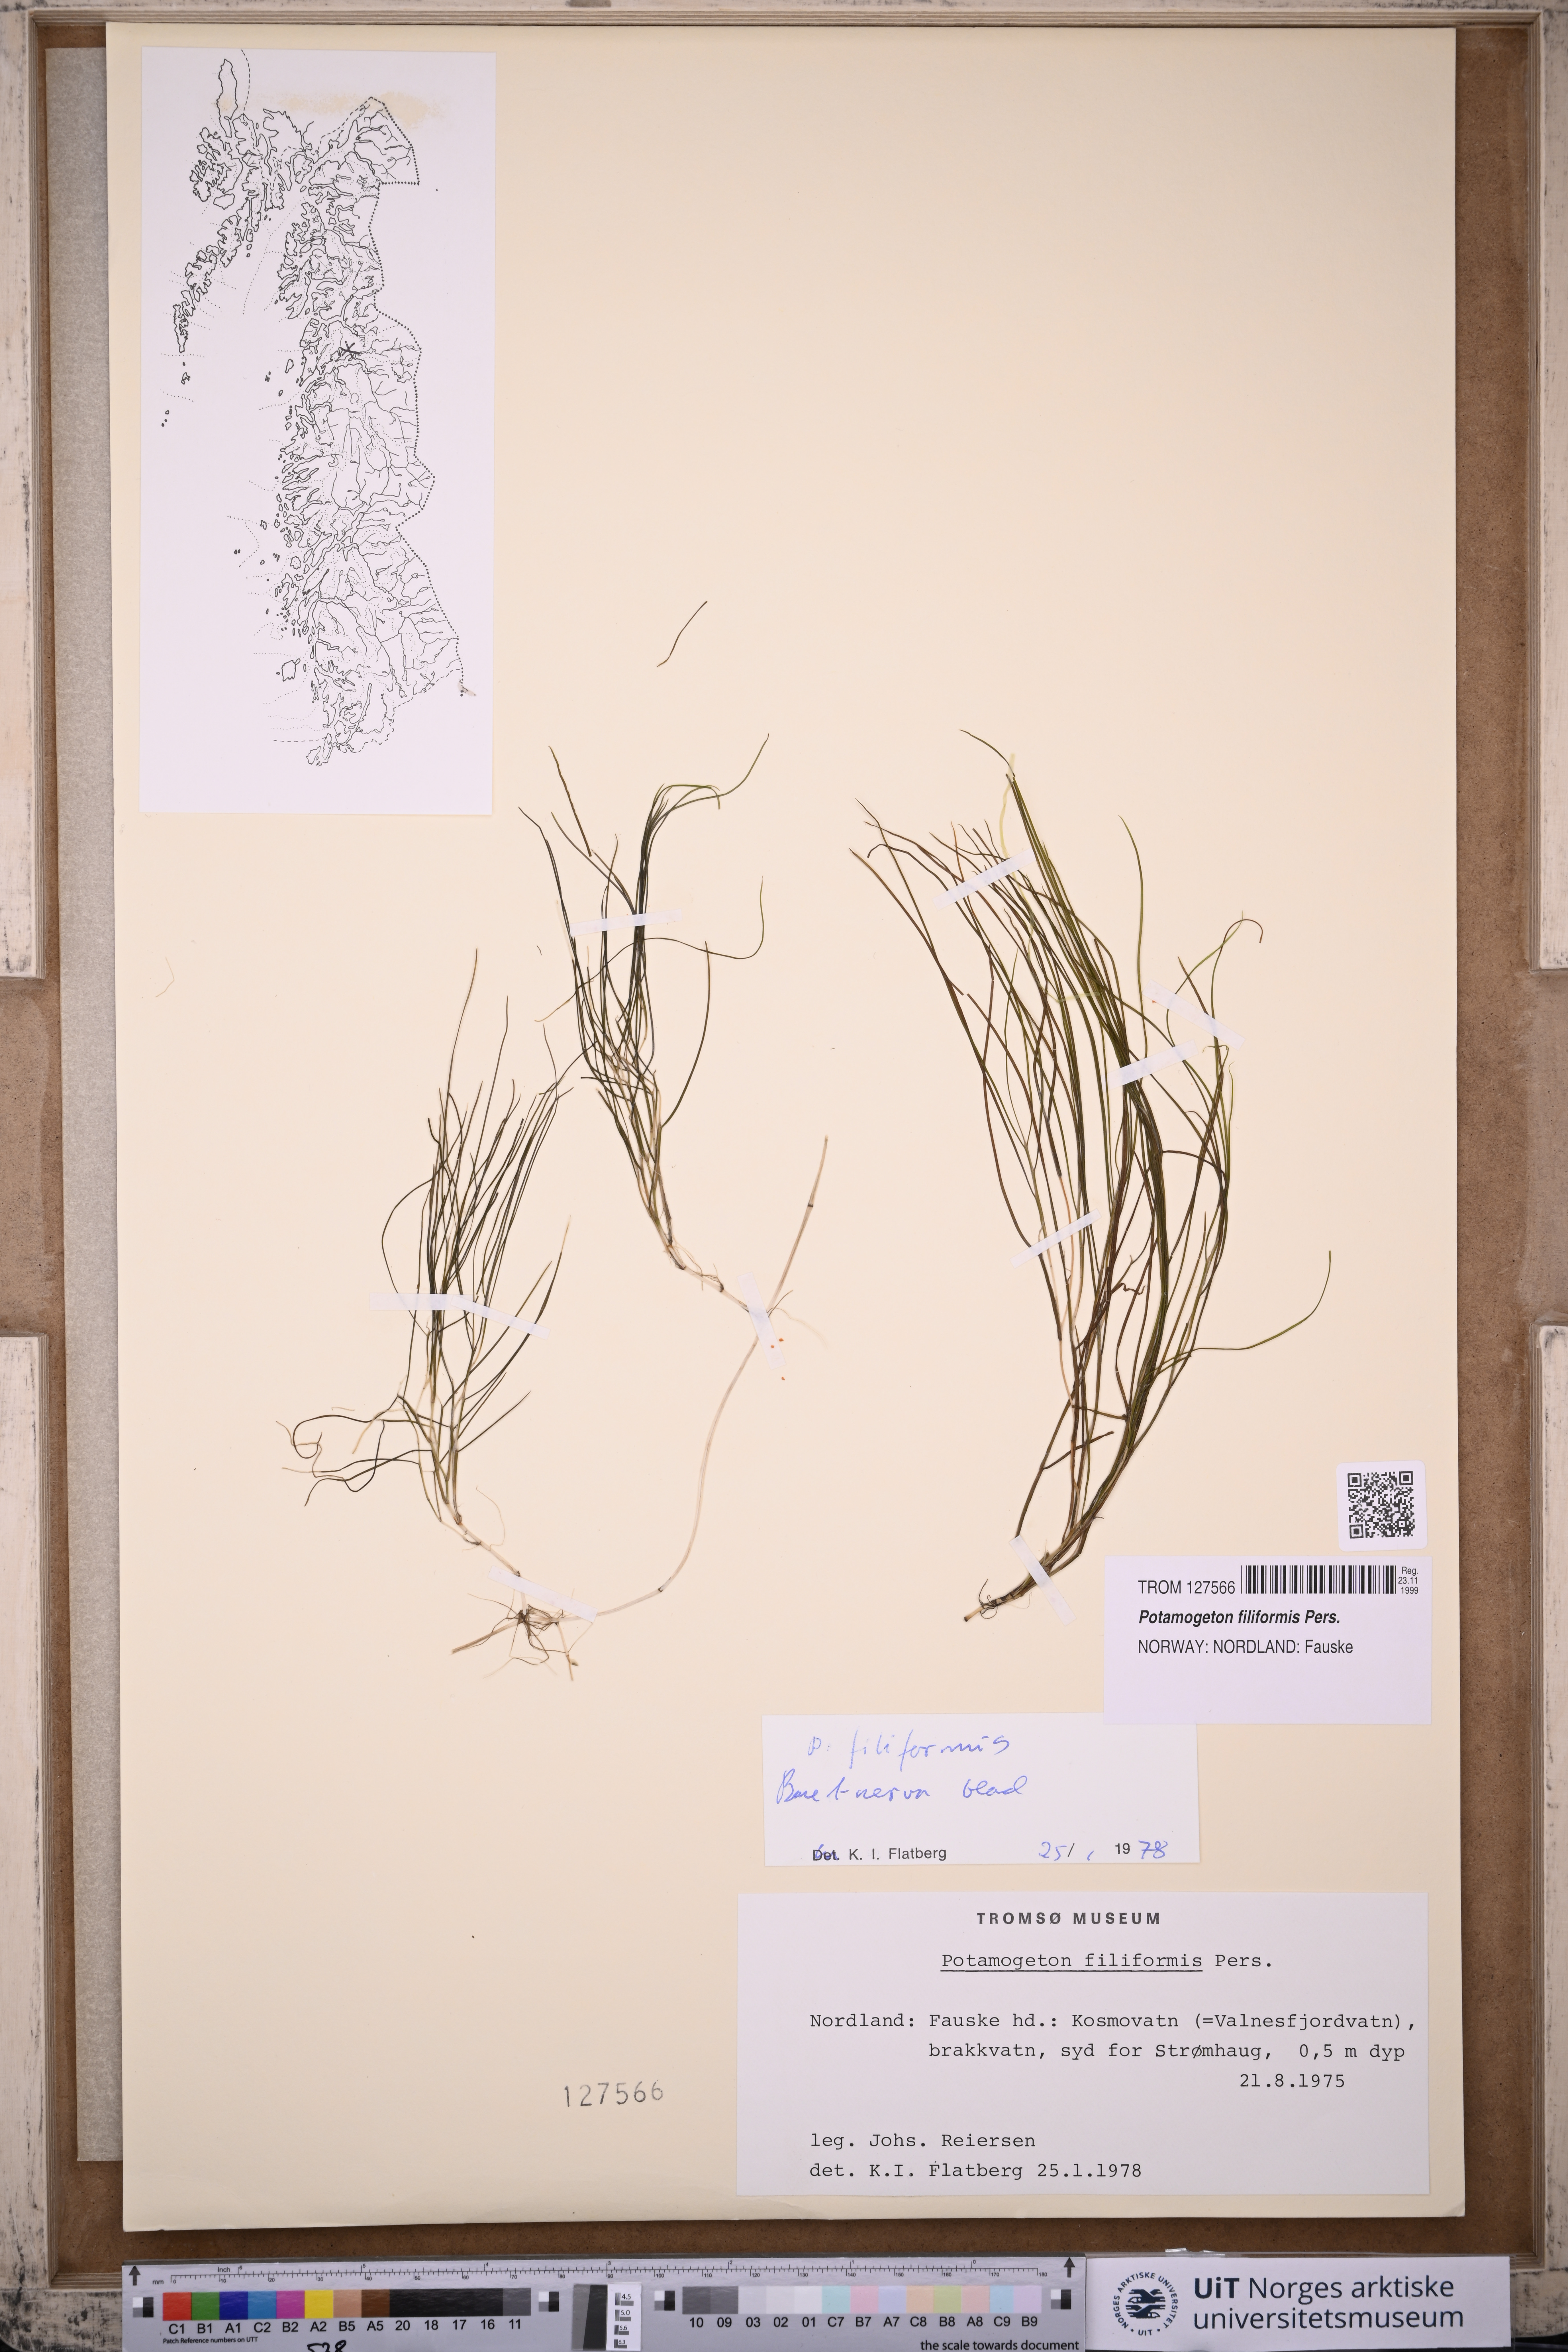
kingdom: Plantae
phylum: Tracheophyta
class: Liliopsida
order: Alismatales
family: Potamogetonaceae
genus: Stuckenia
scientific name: Stuckenia filiformis
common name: Alpine thread-leaved pondweed
